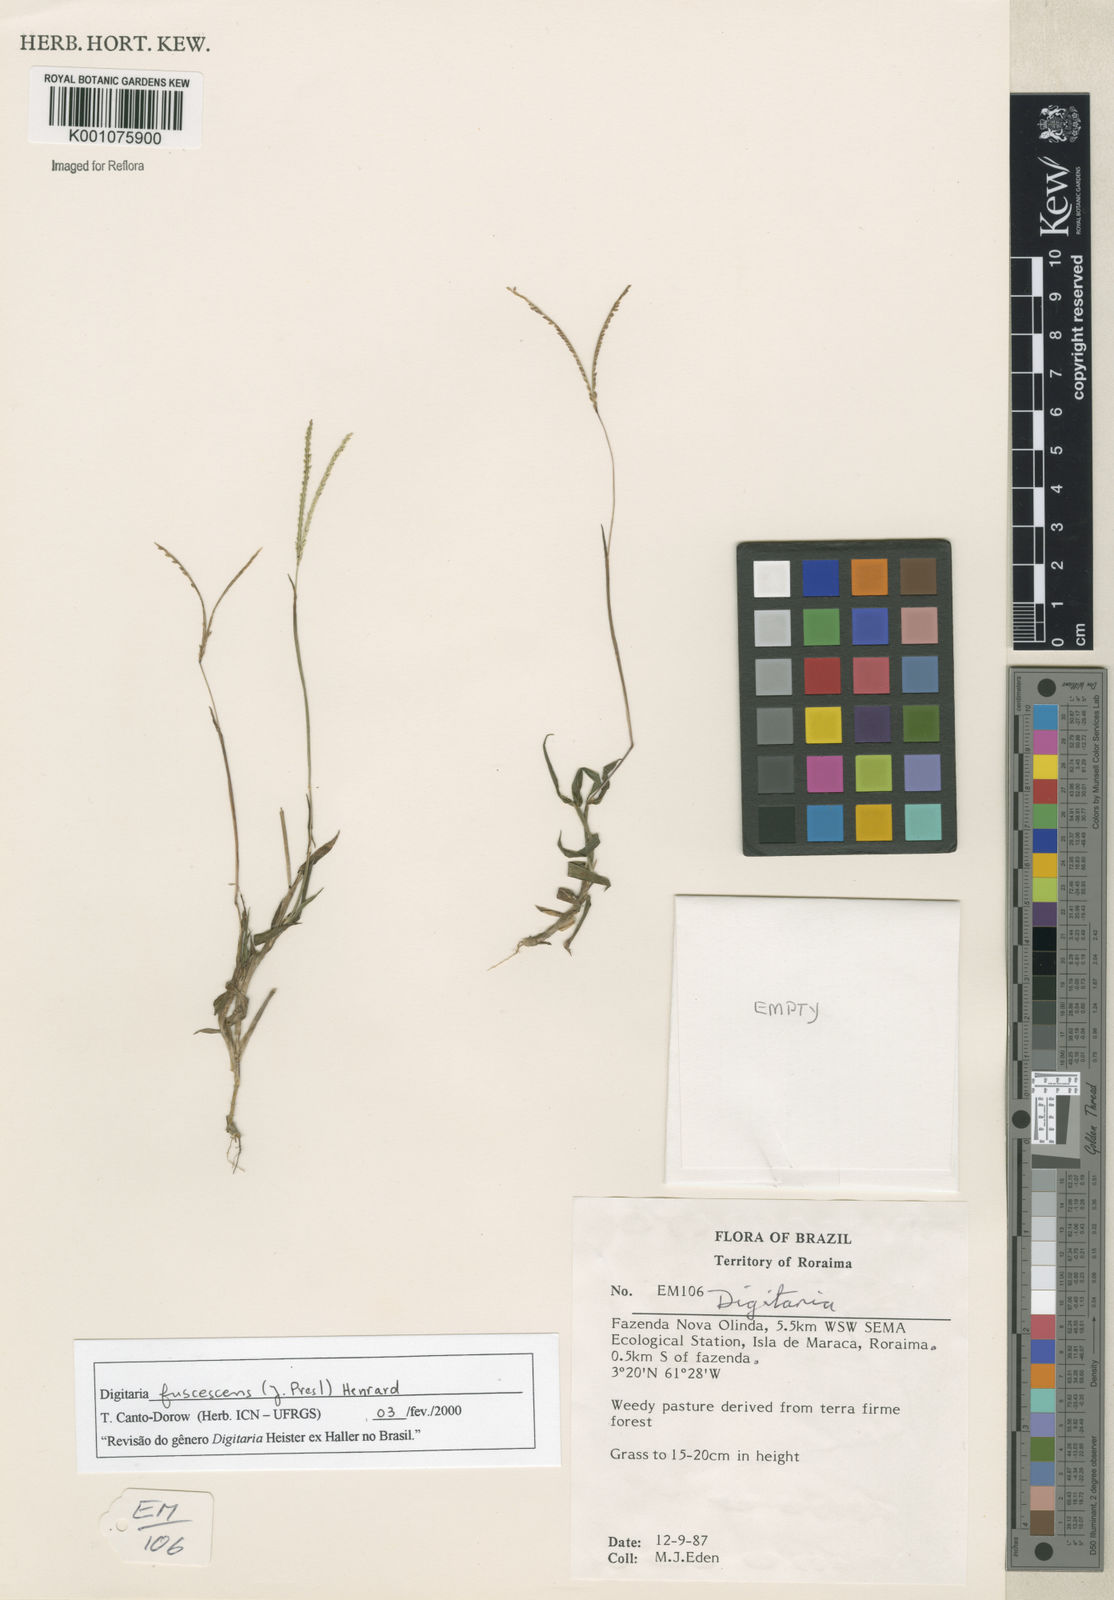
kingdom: Plantae
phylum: Tracheophyta
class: Liliopsida
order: Poales
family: Poaceae
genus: Digitaria
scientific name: Digitaria fuscescens
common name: Yellow crabgrass
